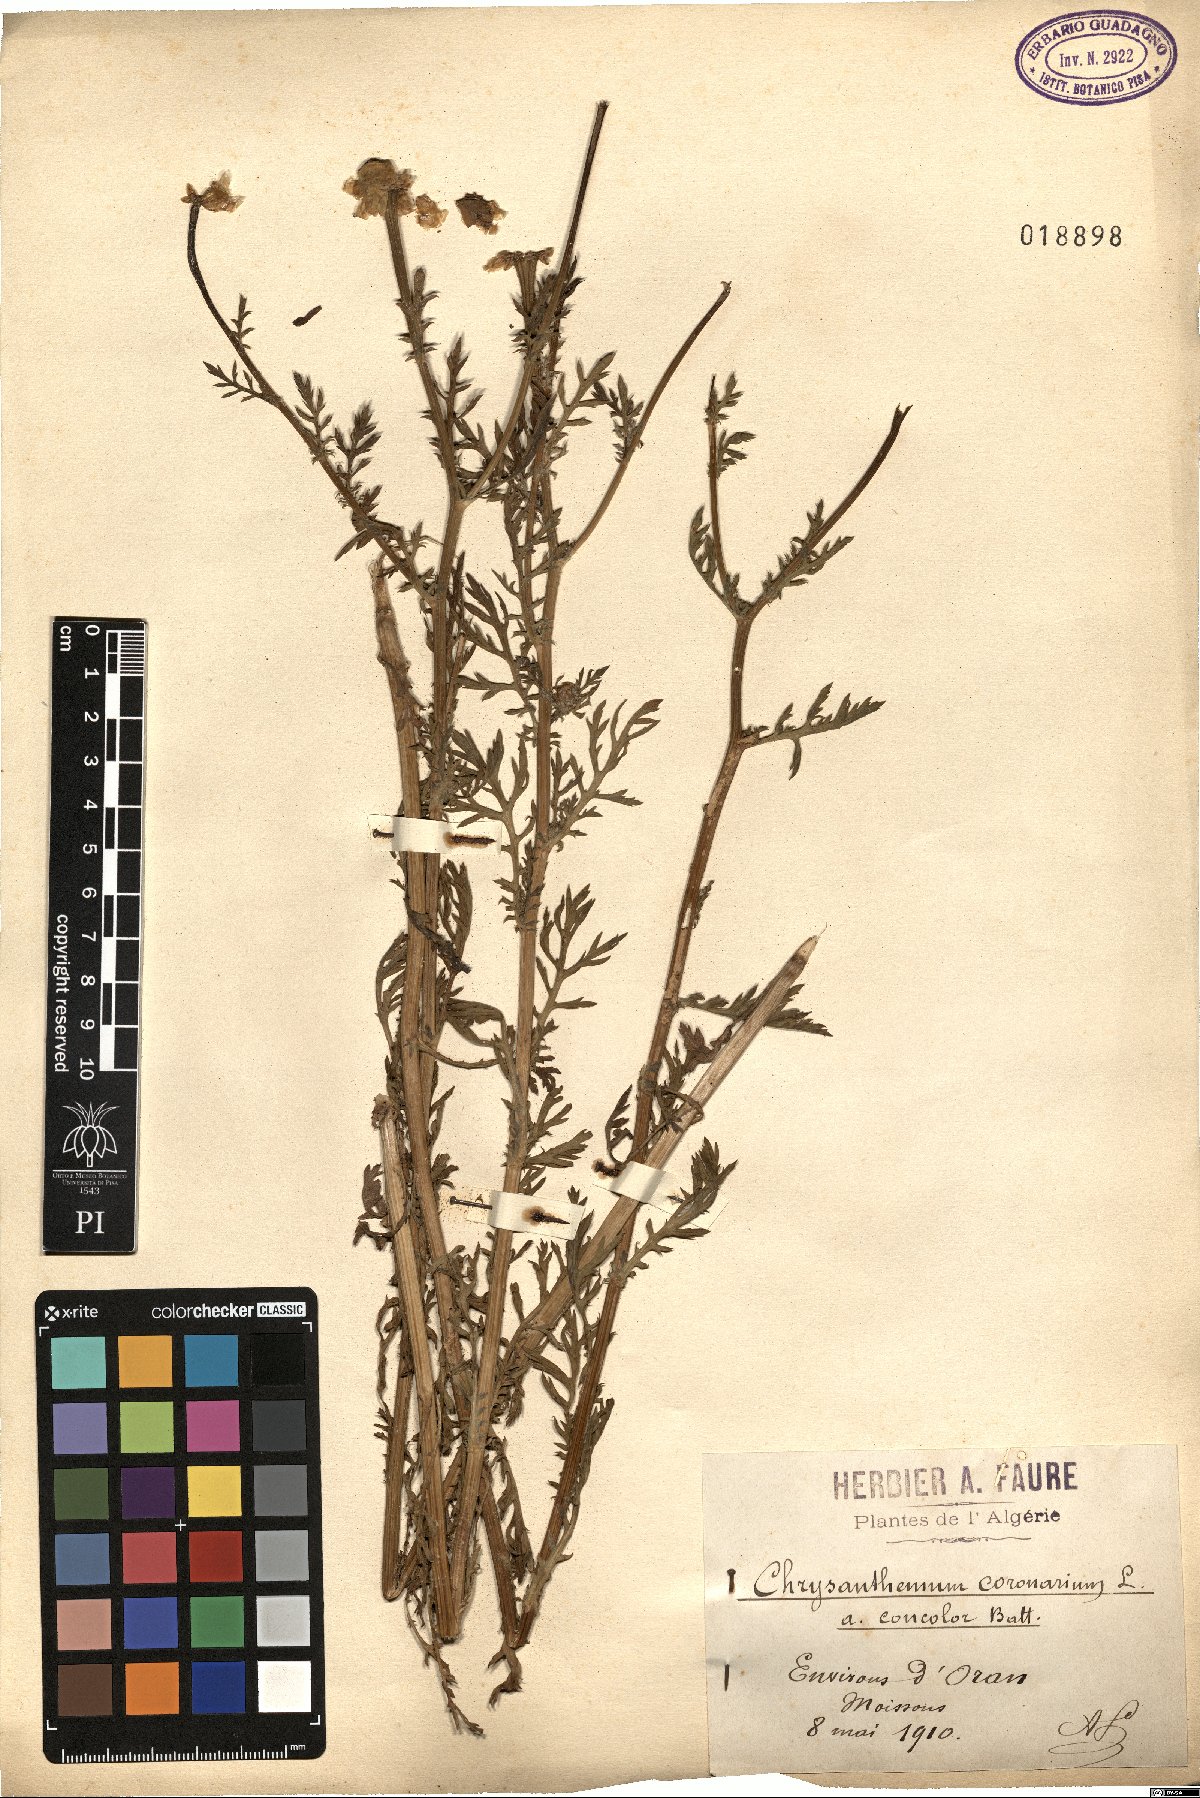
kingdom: Plantae
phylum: Tracheophyta
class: Magnoliopsida
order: Asterales
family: Asteraceae
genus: Glebionis
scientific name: Glebionis coronaria
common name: Crowndaisy
